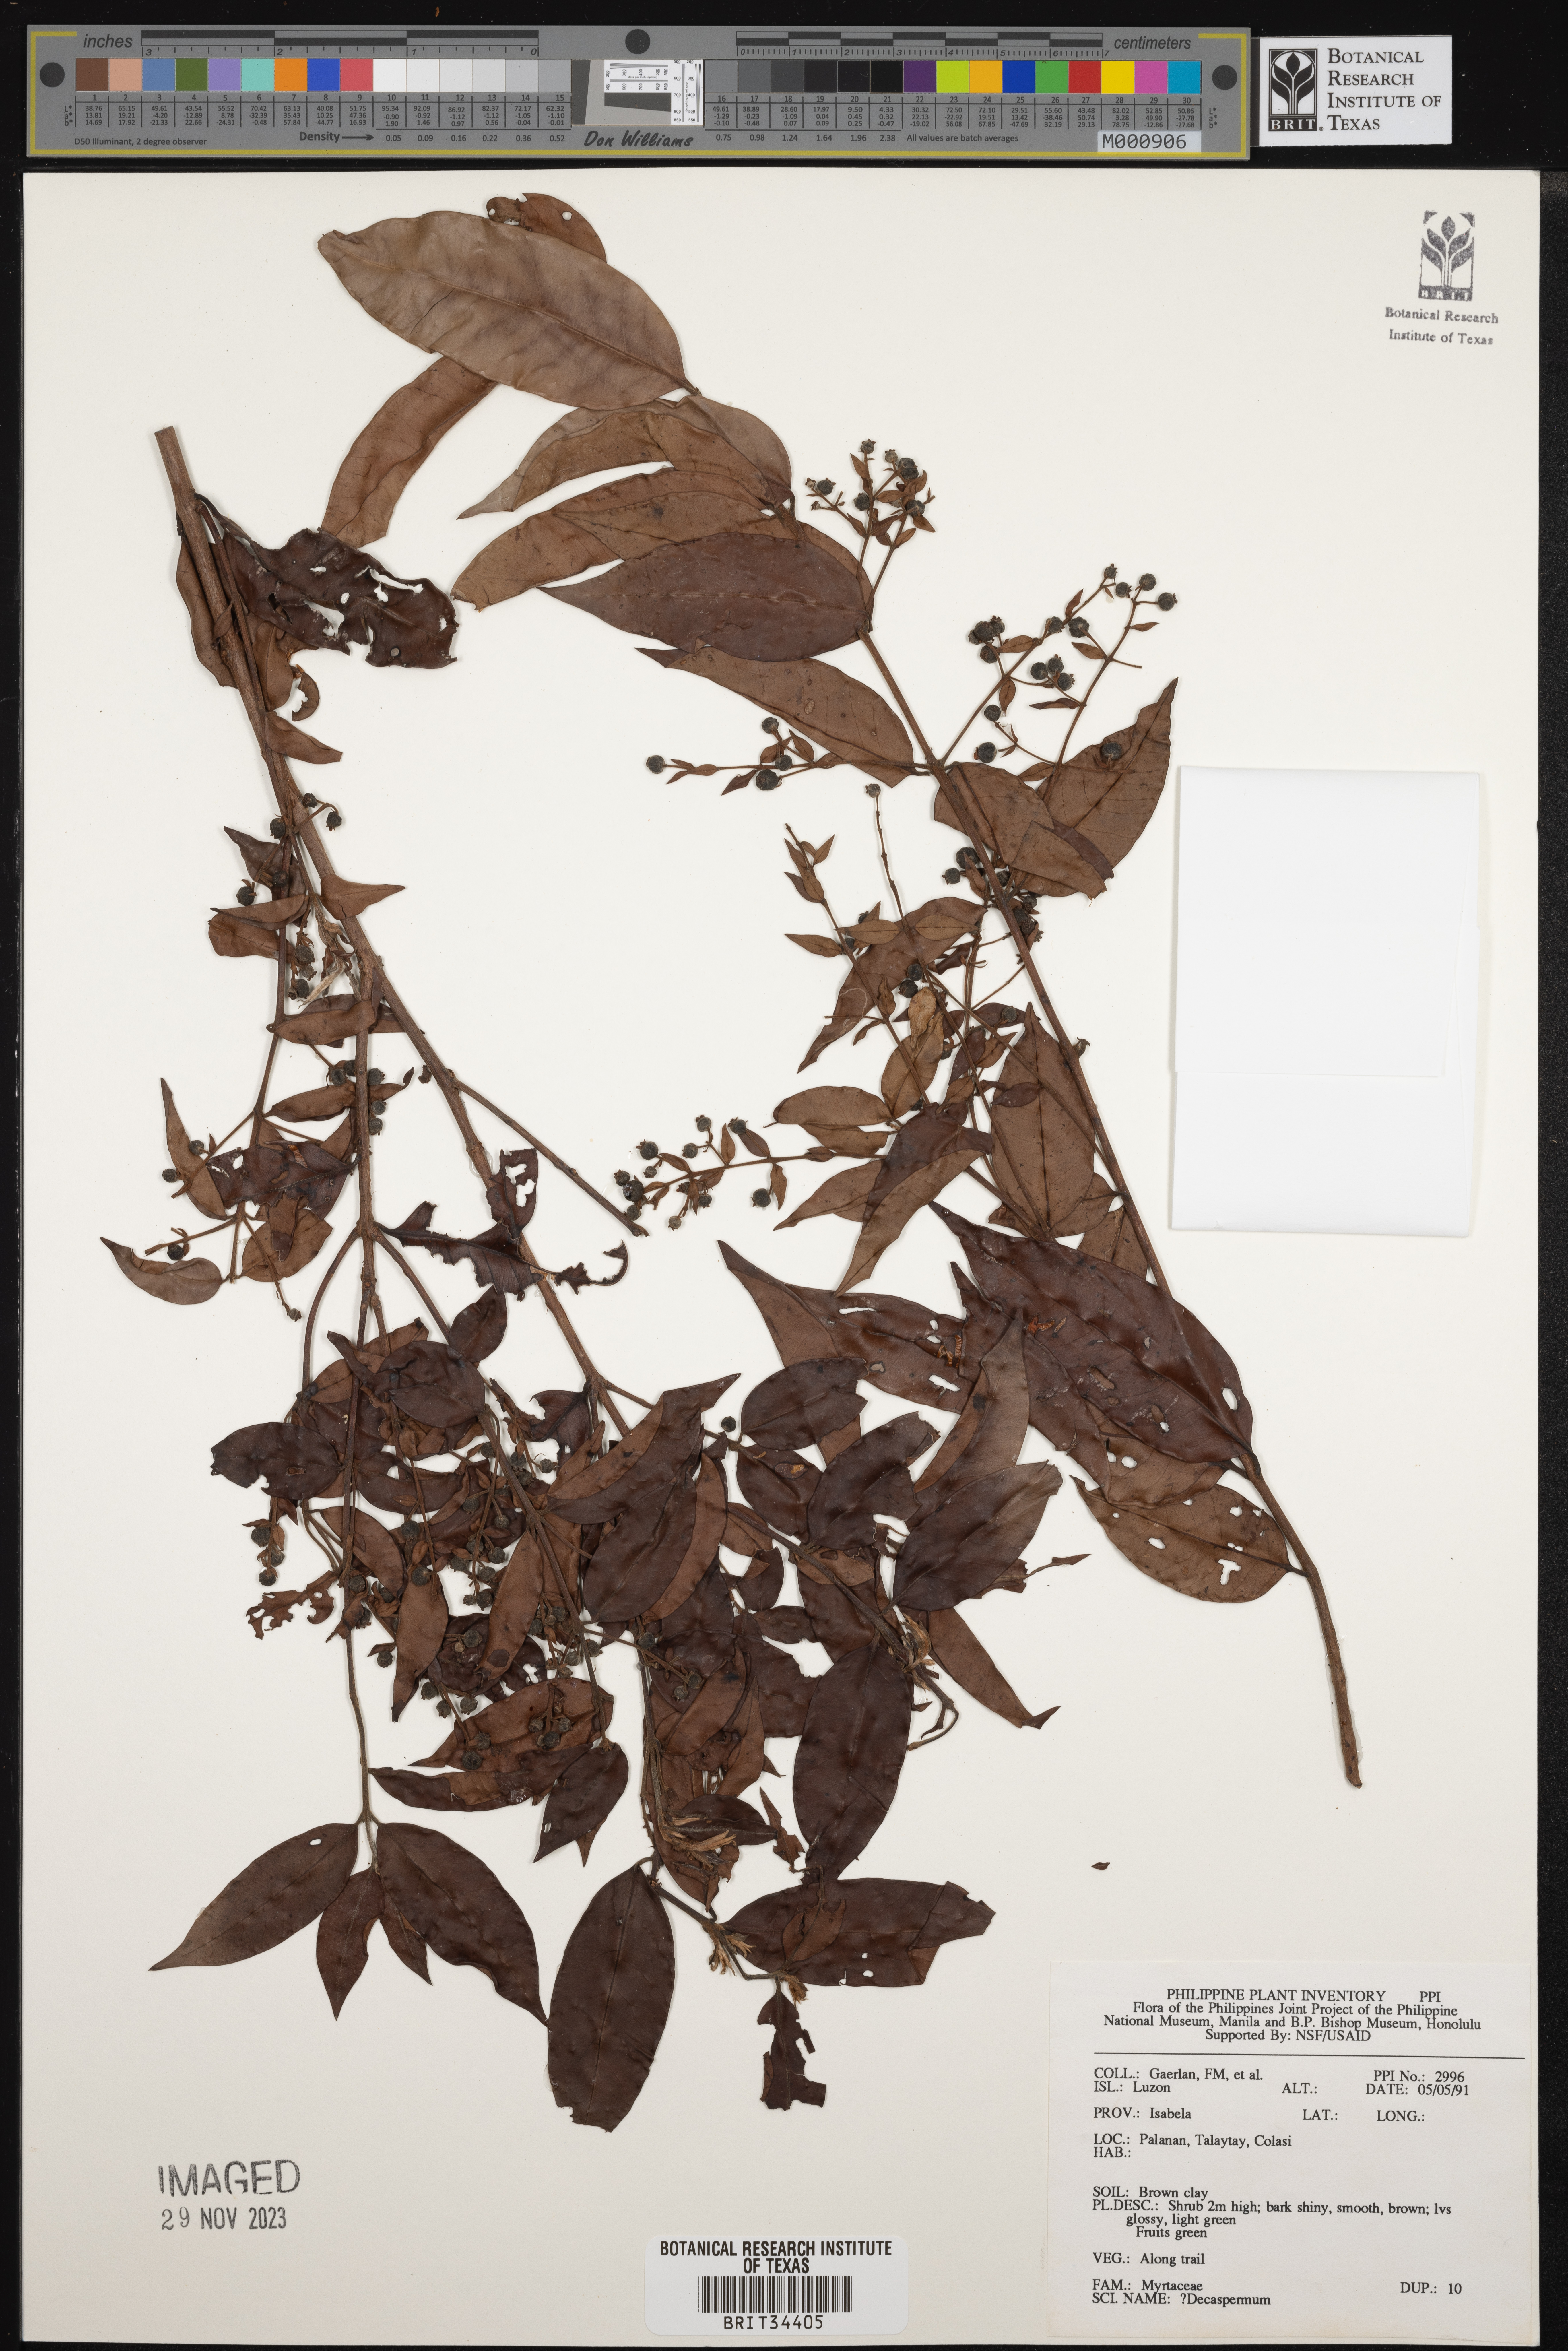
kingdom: Plantae
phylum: Tracheophyta
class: Magnoliopsida
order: Myrtales
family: Myrtaceae
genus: Decaspermum
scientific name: Decaspermum
